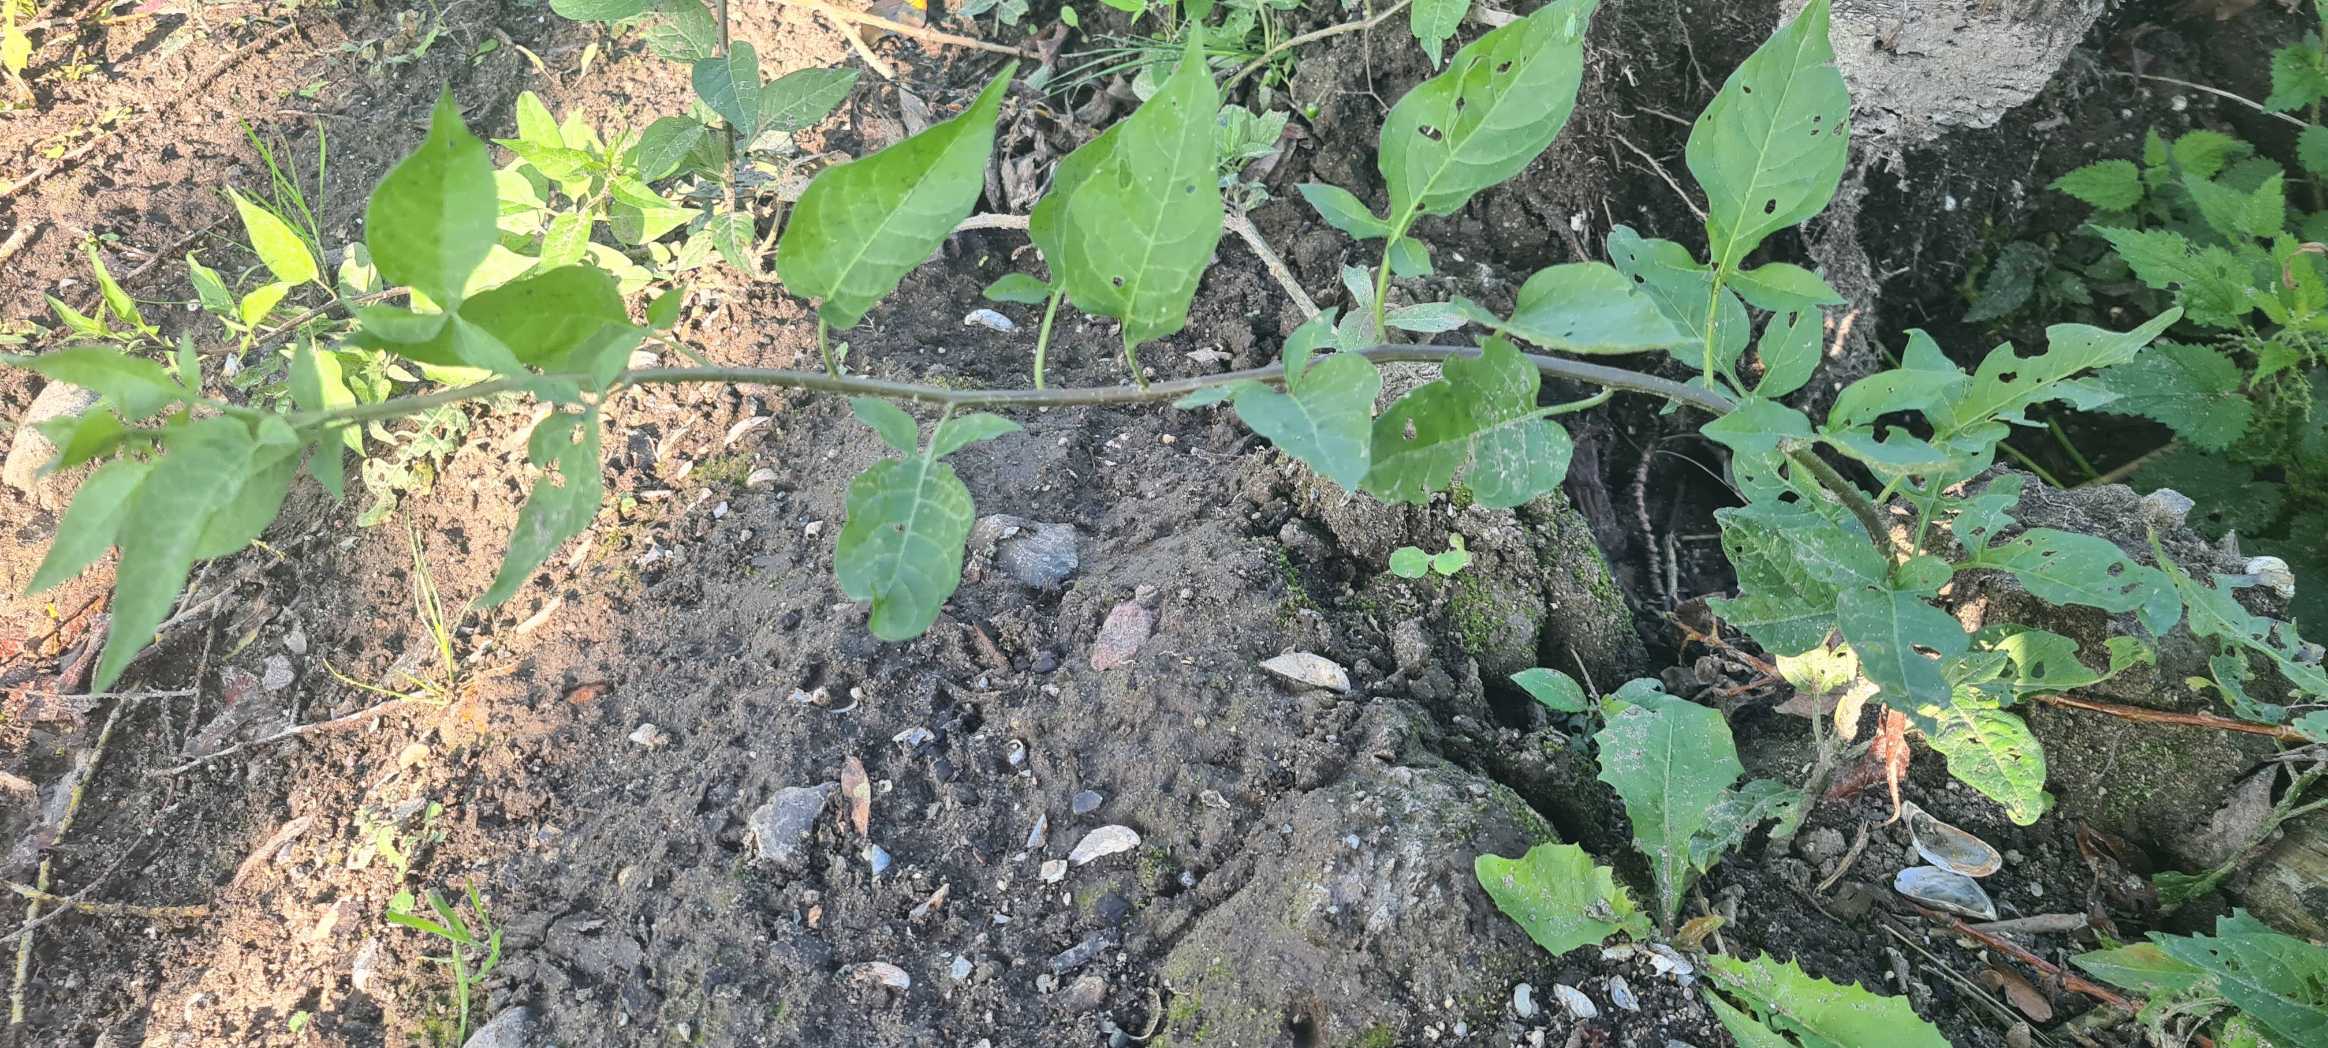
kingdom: Plantae
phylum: Tracheophyta
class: Magnoliopsida
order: Solanales
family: Solanaceae
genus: Solanum
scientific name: Solanum dulcamara
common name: Bittersød natskygge
